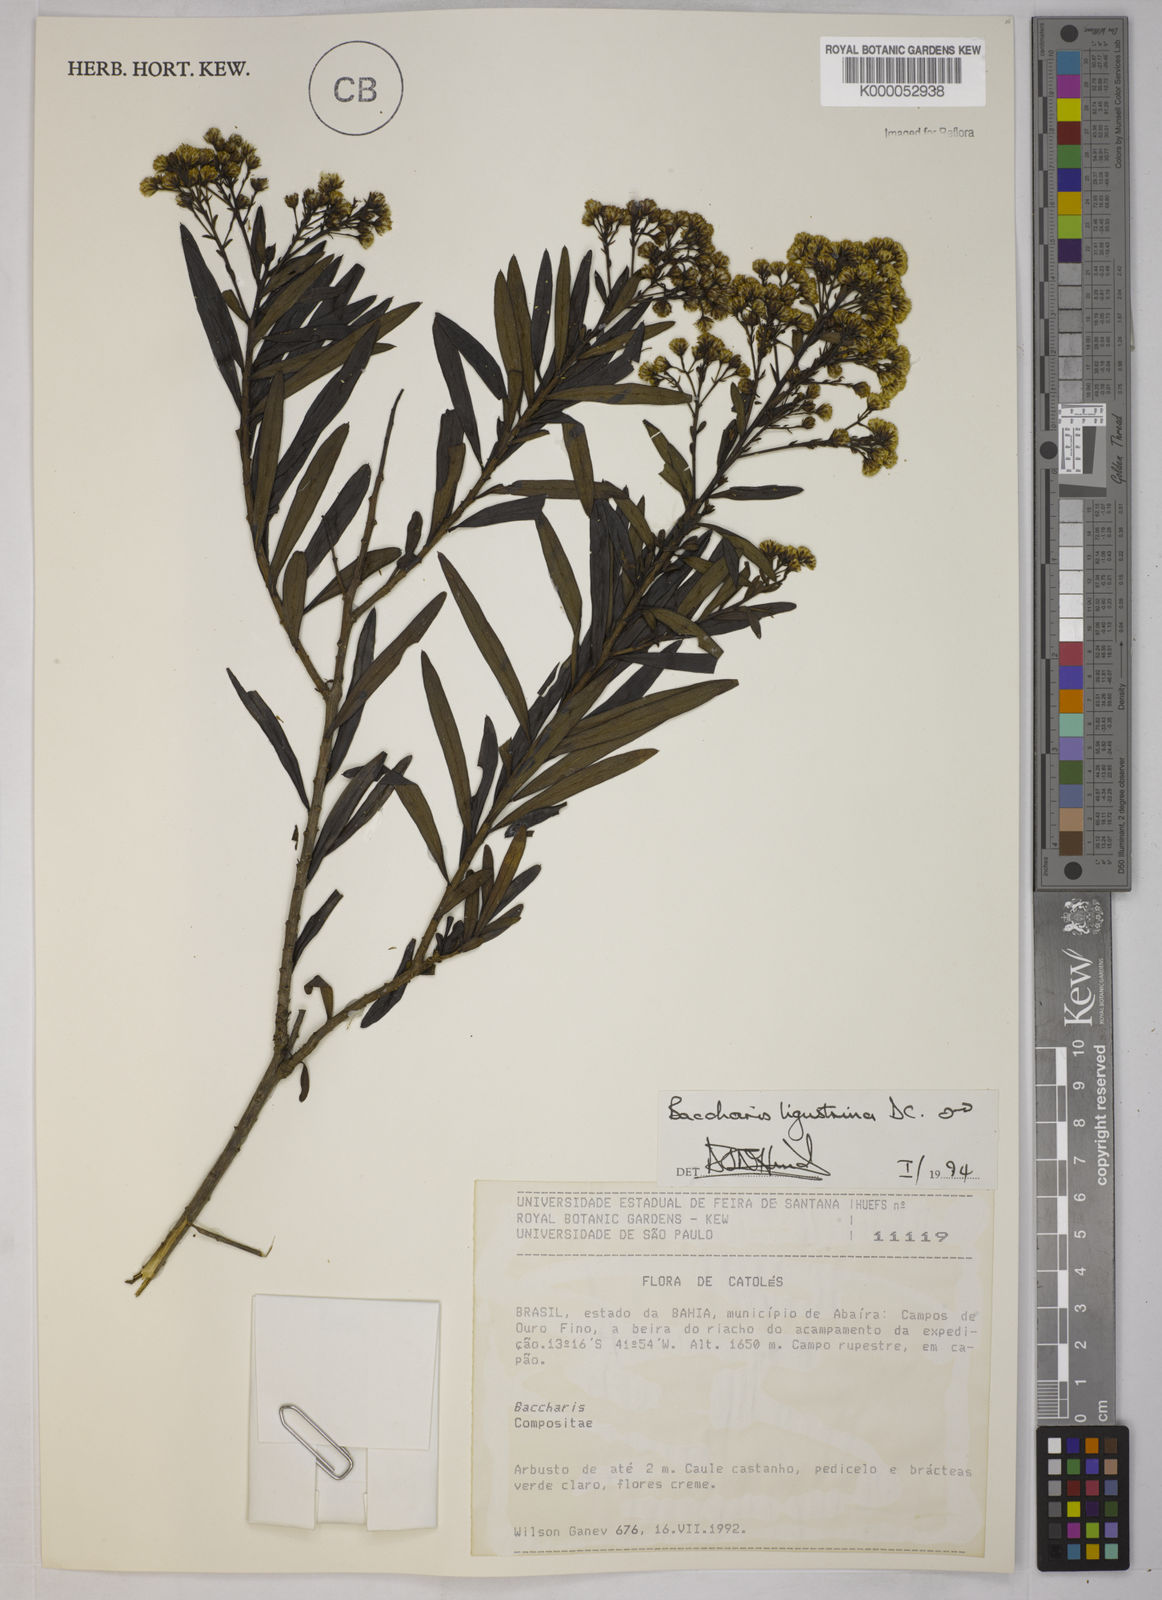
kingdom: Plantae
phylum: Tracheophyta
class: Magnoliopsida
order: Asterales
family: Asteraceae
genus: Baccharis
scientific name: Baccharis ligustrina
